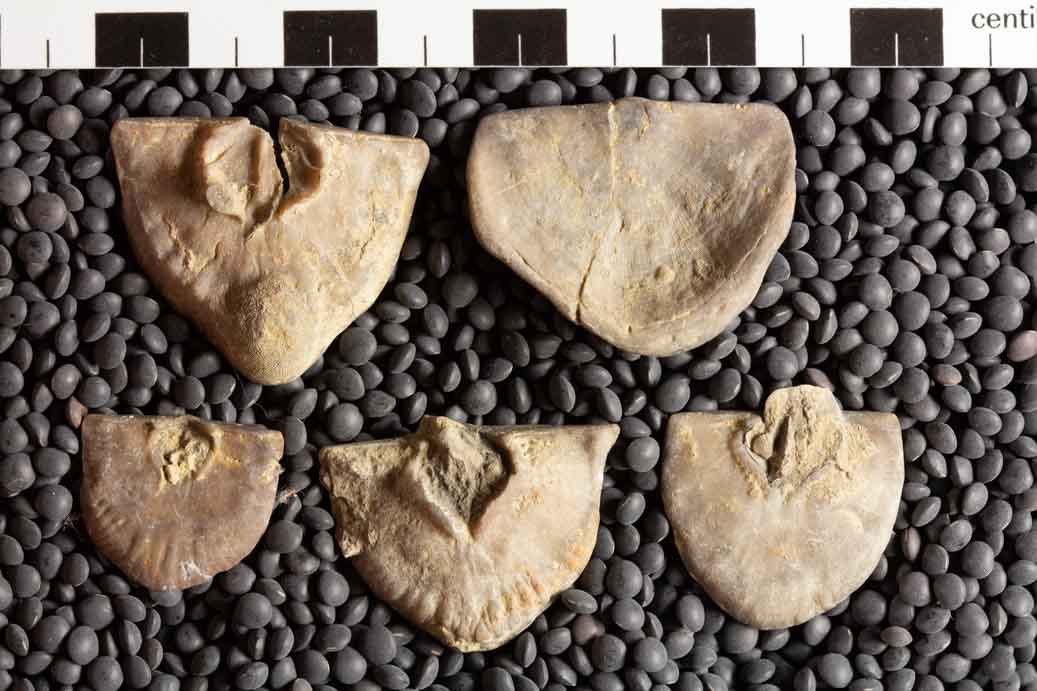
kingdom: Animalia
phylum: Brachiopoda
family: Strophomenidae
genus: Strophomena
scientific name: Strophomena concordensis
